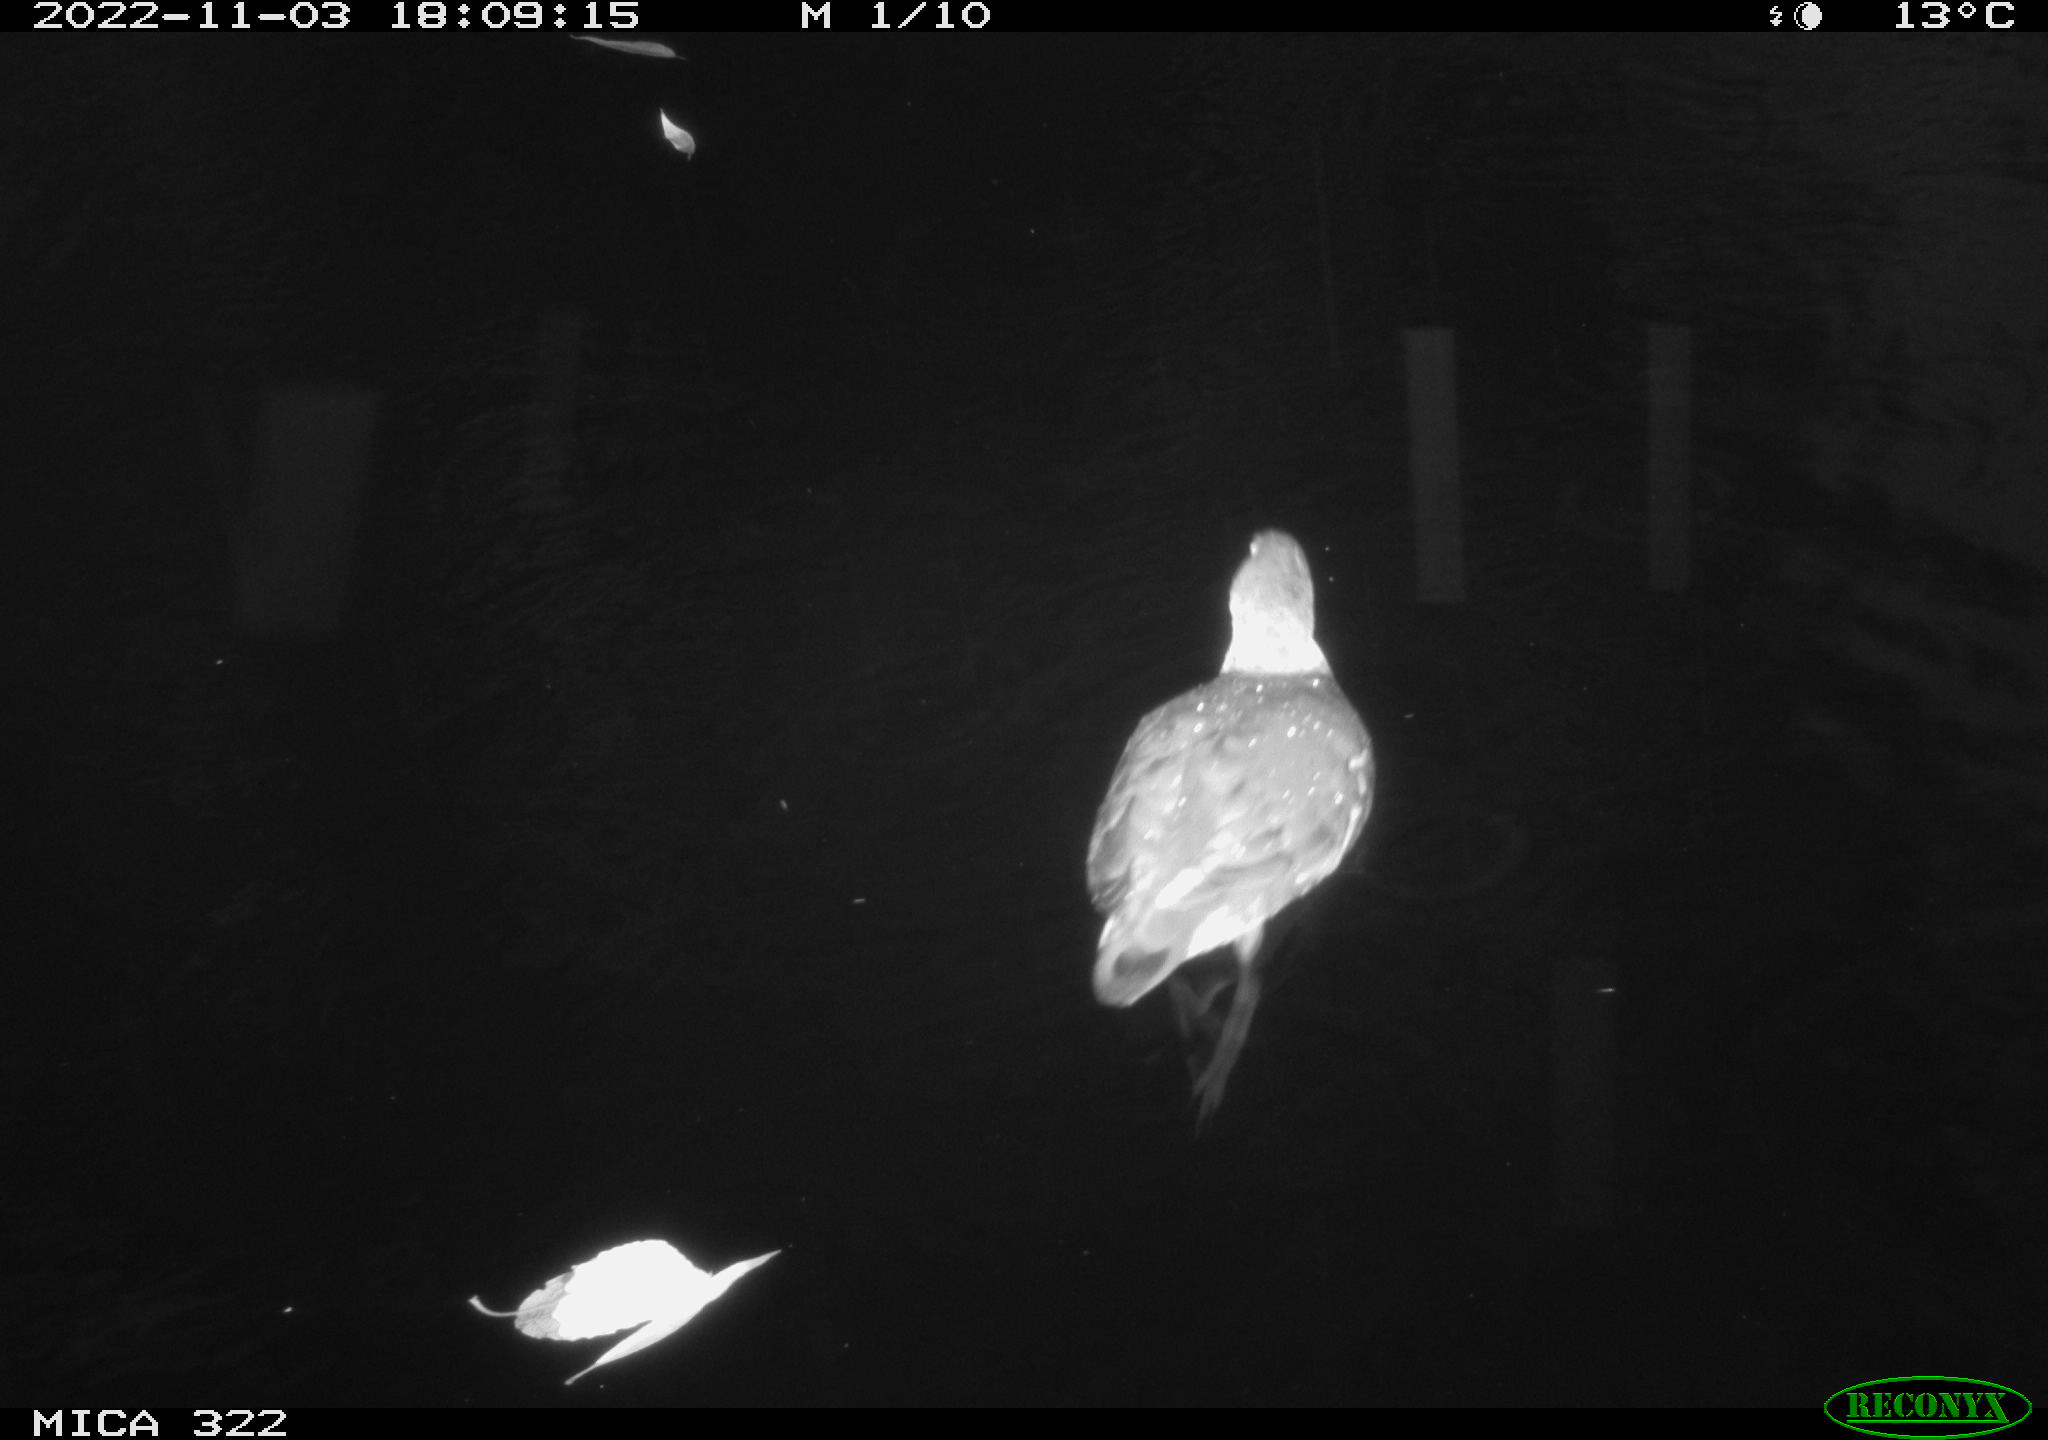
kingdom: Animalia
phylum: Chordata
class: Aves
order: Gruiformes
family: Rallidae
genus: Fulica
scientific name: Fulica atra
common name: Eurasian coot
